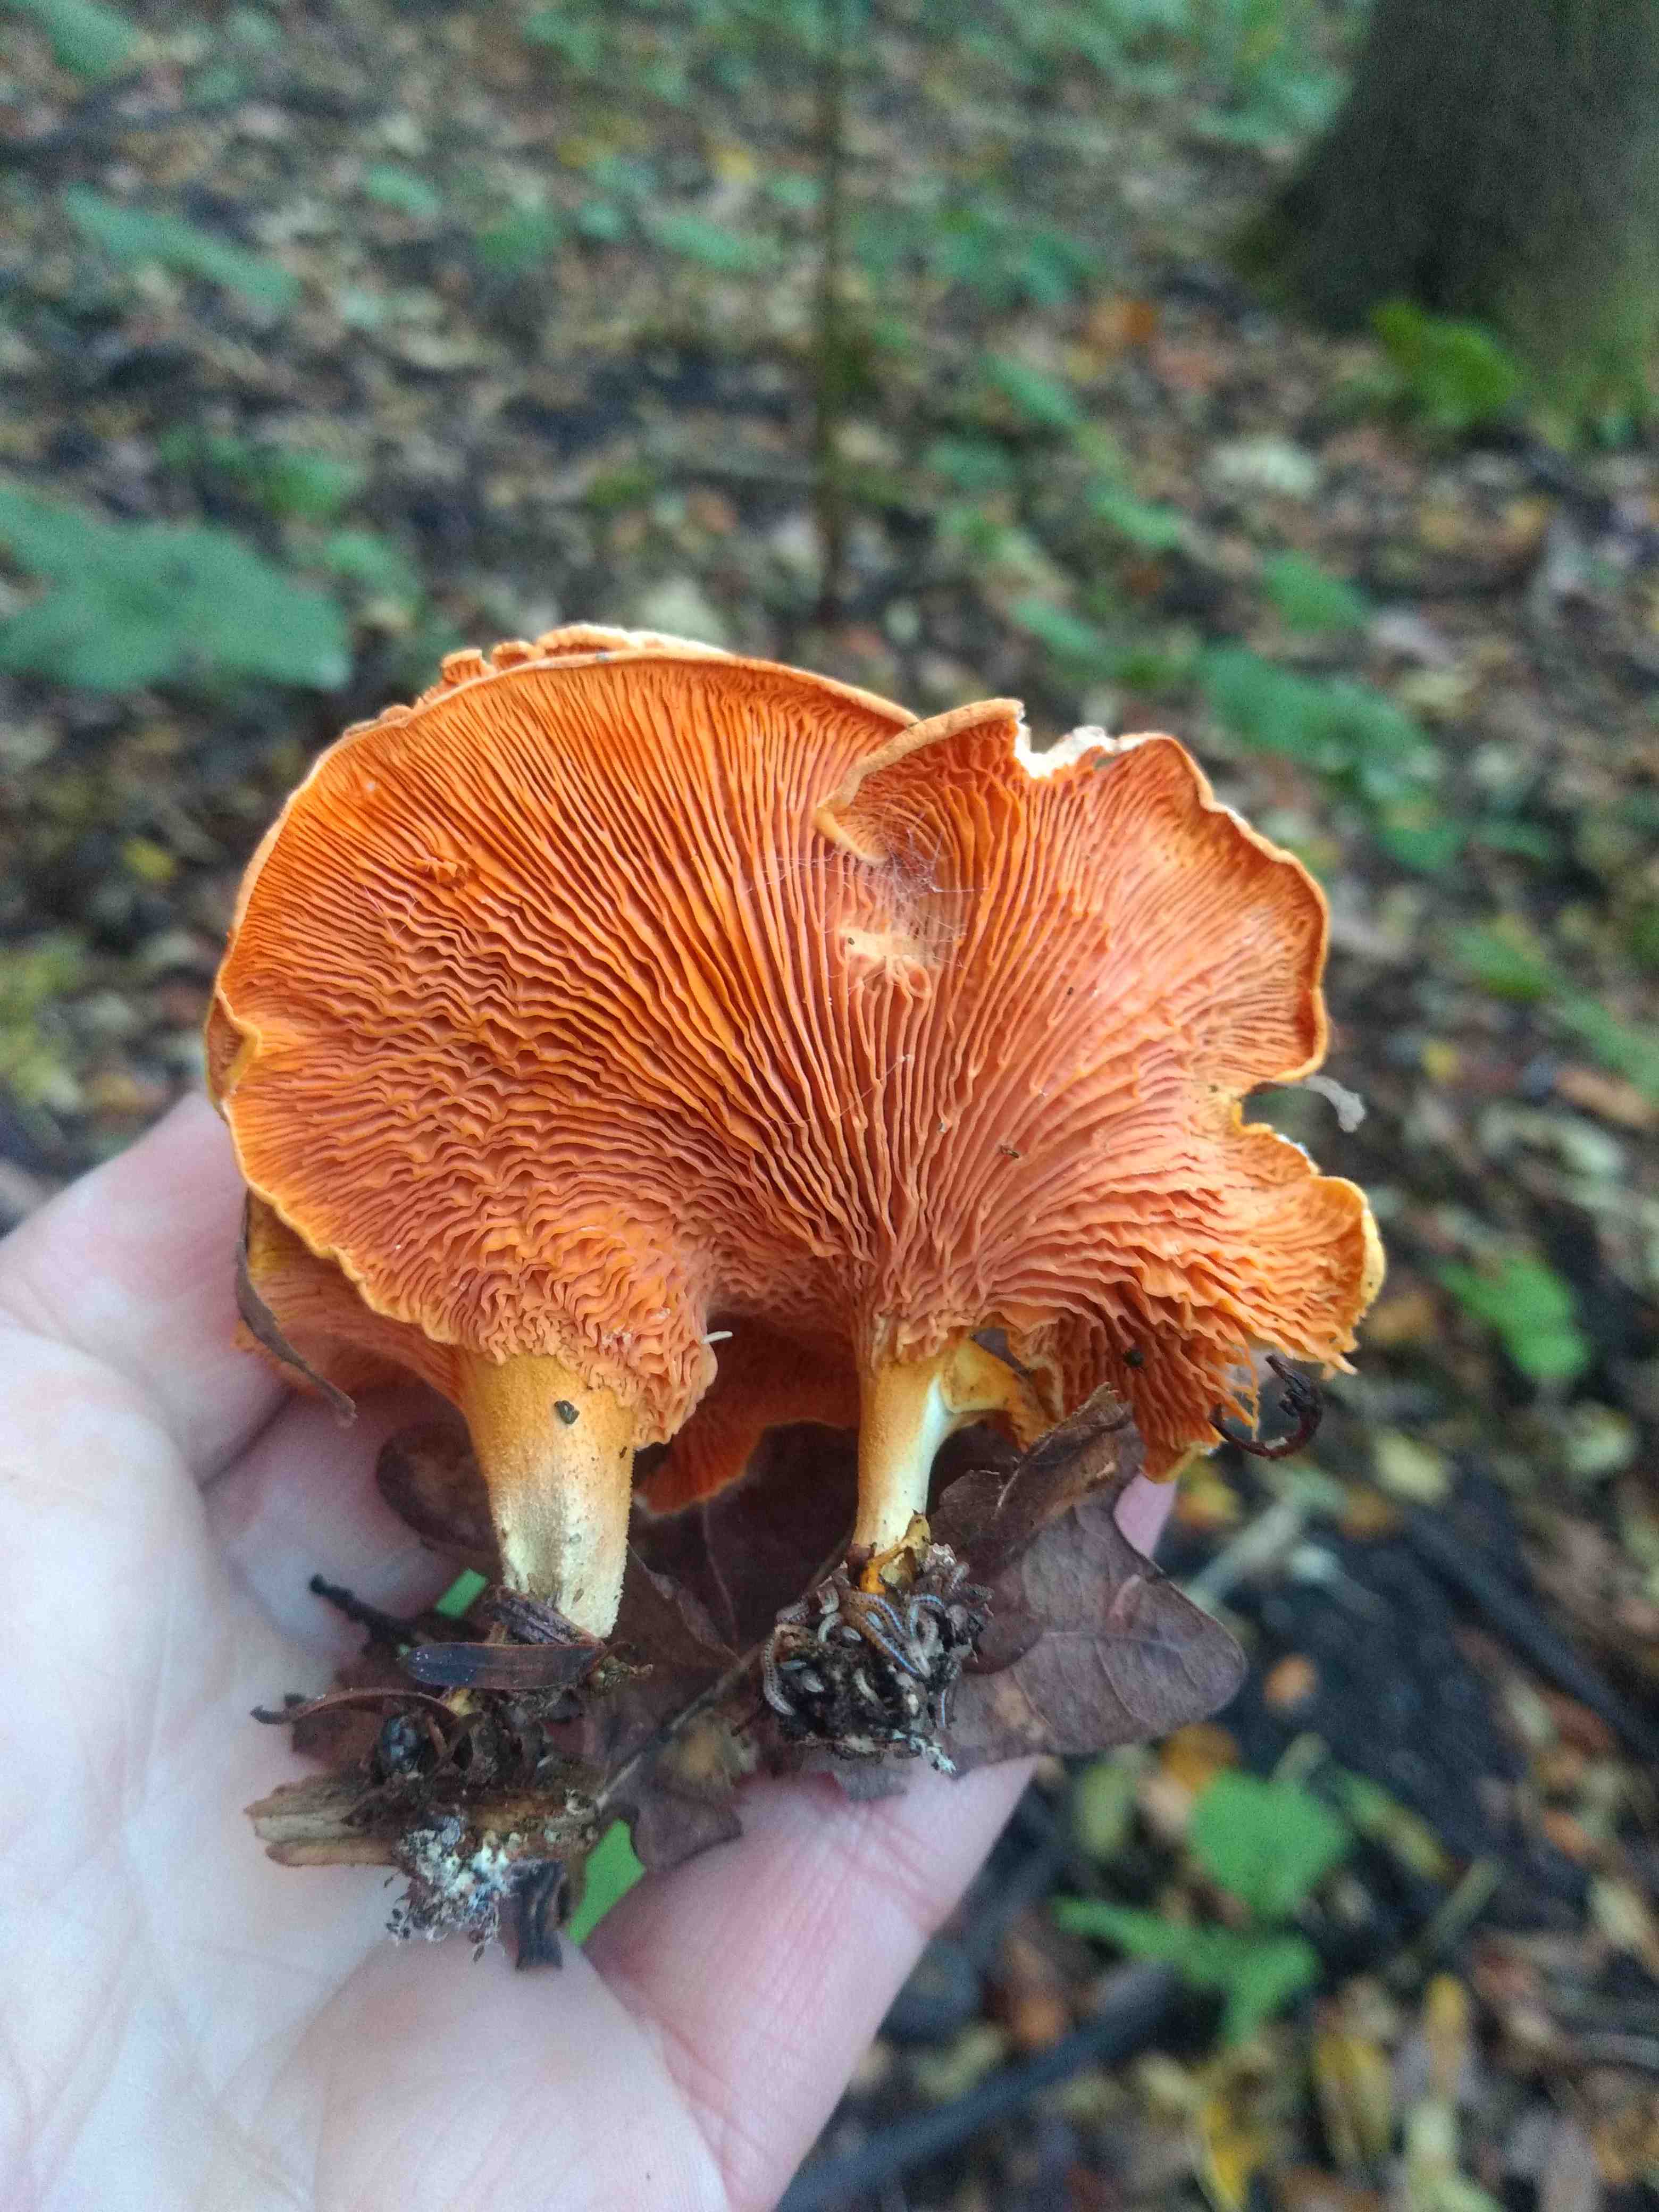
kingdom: Fungi
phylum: Basidiomycota
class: Agaricomycetes
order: Boletales
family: Hygrophoropsidaceae
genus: Hygrophoropsis
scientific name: Hygrophoropsis aurantiaca
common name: almindelig orangekantarel
